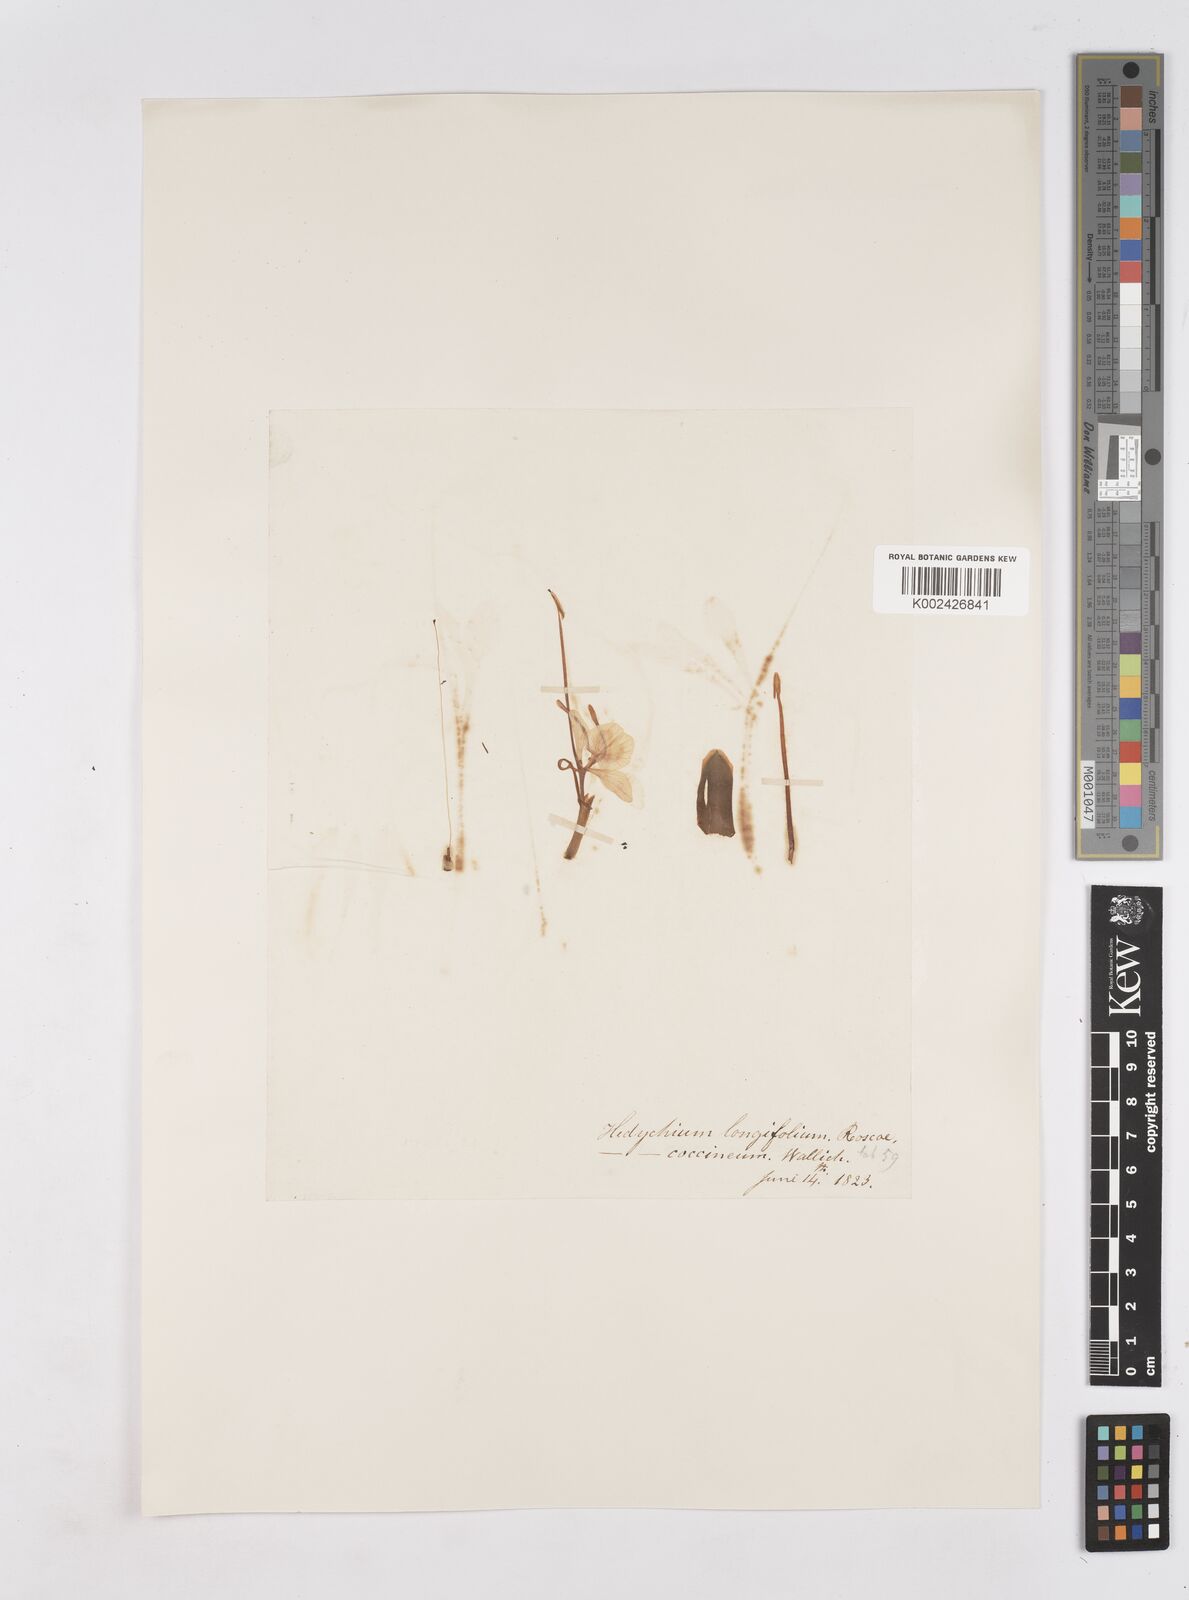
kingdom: Plantae
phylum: Tracheophyta
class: Liliopsida
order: Zingiberales
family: Zingiberaceae
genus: Hedychium
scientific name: Hedychium coccineum
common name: Red ginger-lily
